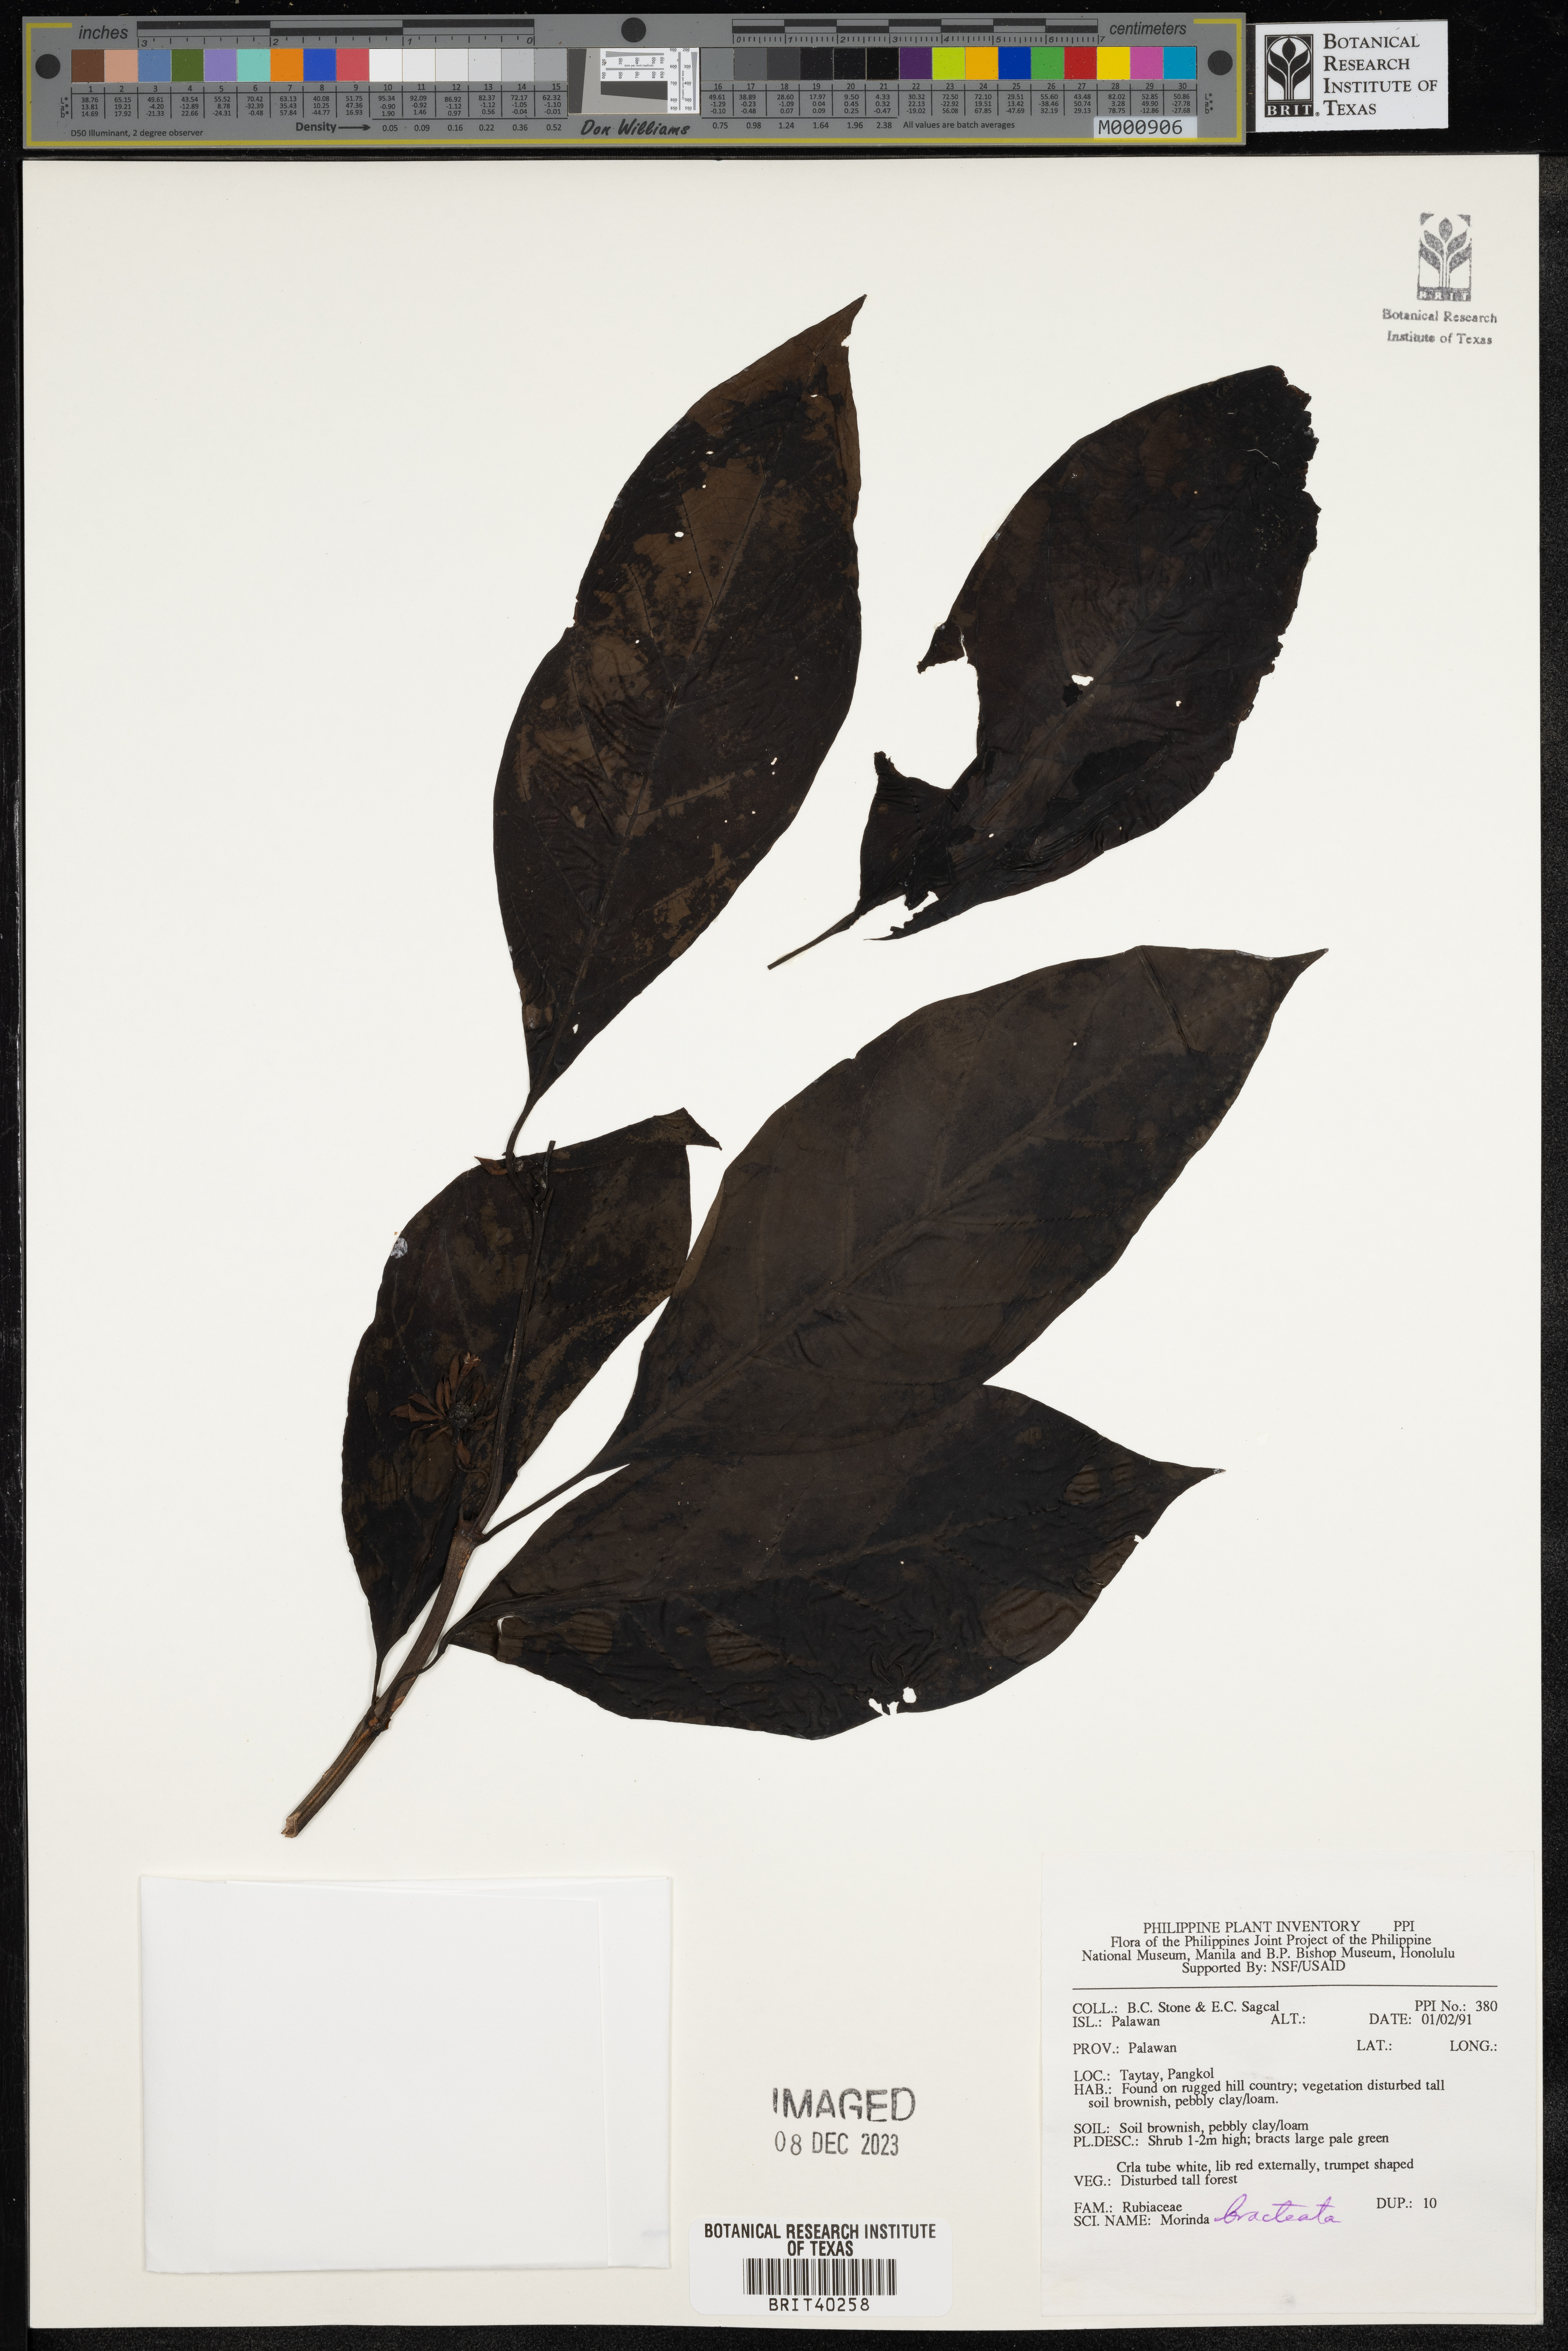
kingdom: Plantae
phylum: Tracheophyta
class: Magnoliopsida
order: Gentianales
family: Rubiaceae
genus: Morinda
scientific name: Morinda bracteata
